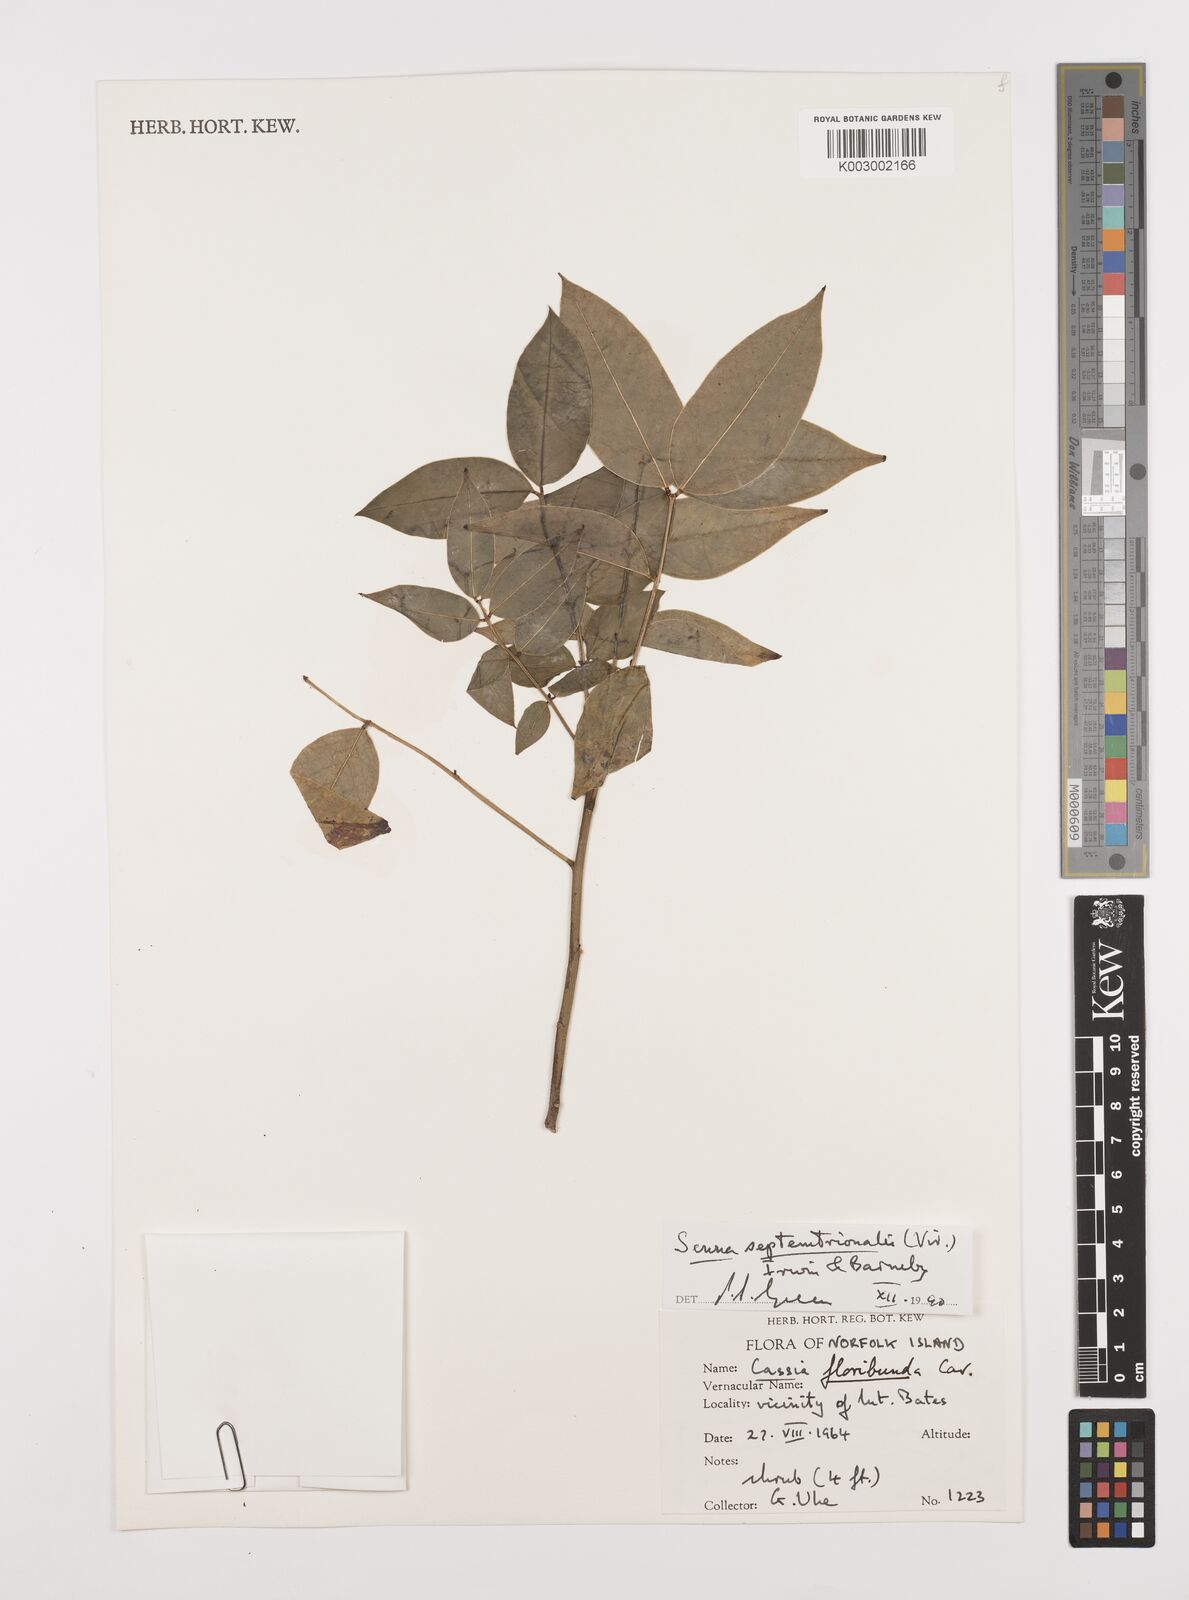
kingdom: Plantae
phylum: Tracheophyta
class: Magnoliopsida
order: Fabales
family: Fabaceae
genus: Senna
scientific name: Senna septemtrionalis
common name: Arsenic bush
